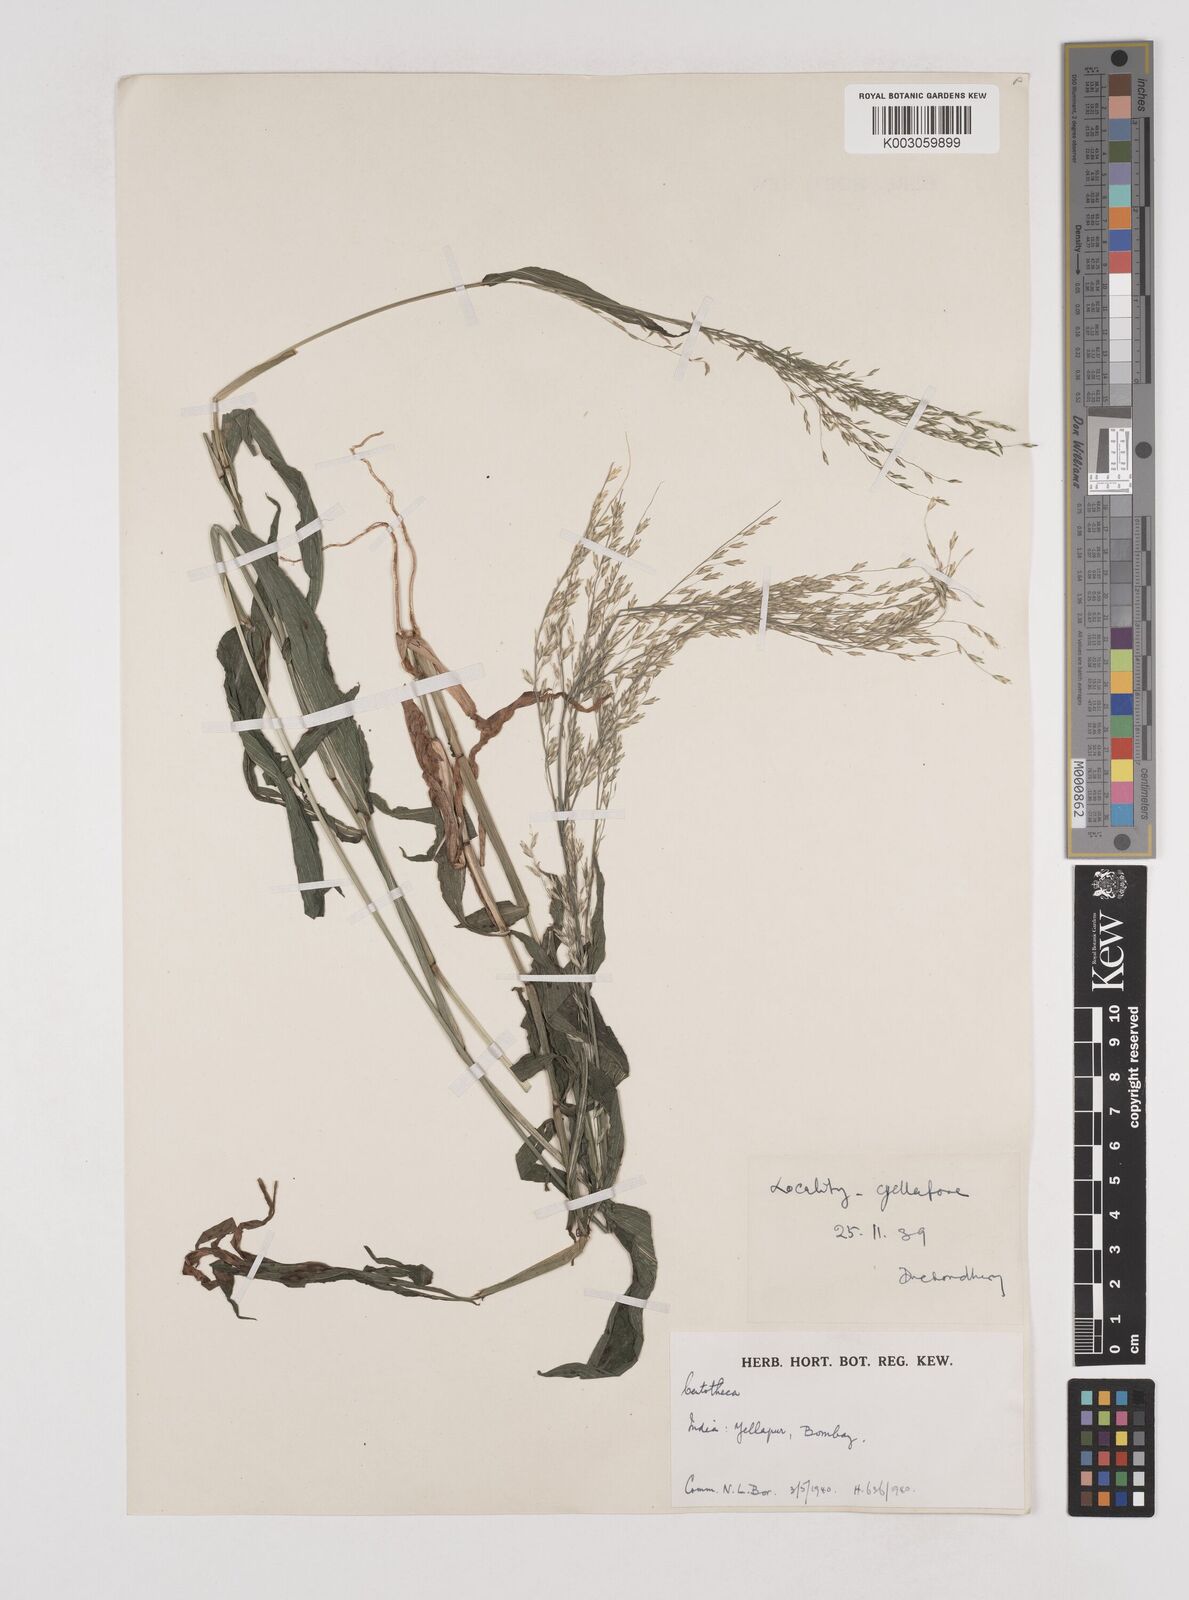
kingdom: Plantae
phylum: Tracheophyta
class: Liliopsida
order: Poales
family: Poaceae
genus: Centotheca
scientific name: Centotheca lappacea
